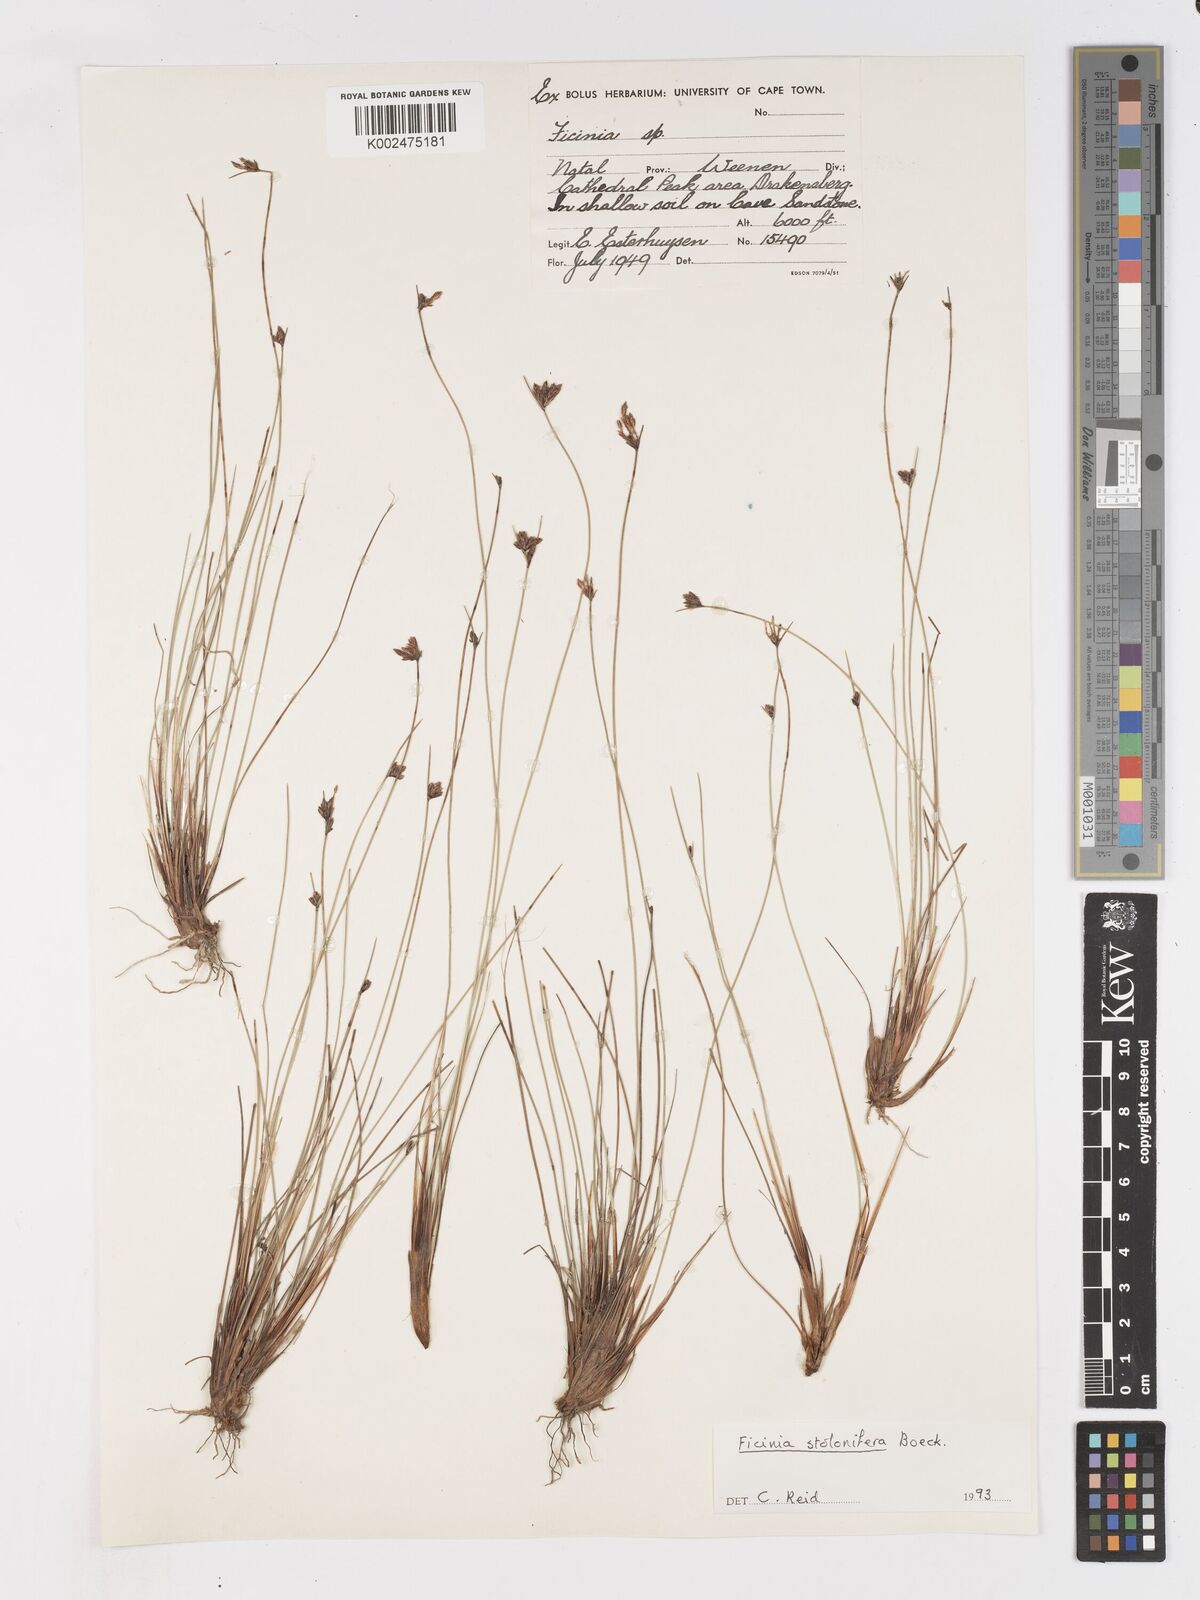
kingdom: Plantae
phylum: Tracheophyta
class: Liliopsida
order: Poales
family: Cyperaceae
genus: Ficinia
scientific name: Ficinia stolonifera
